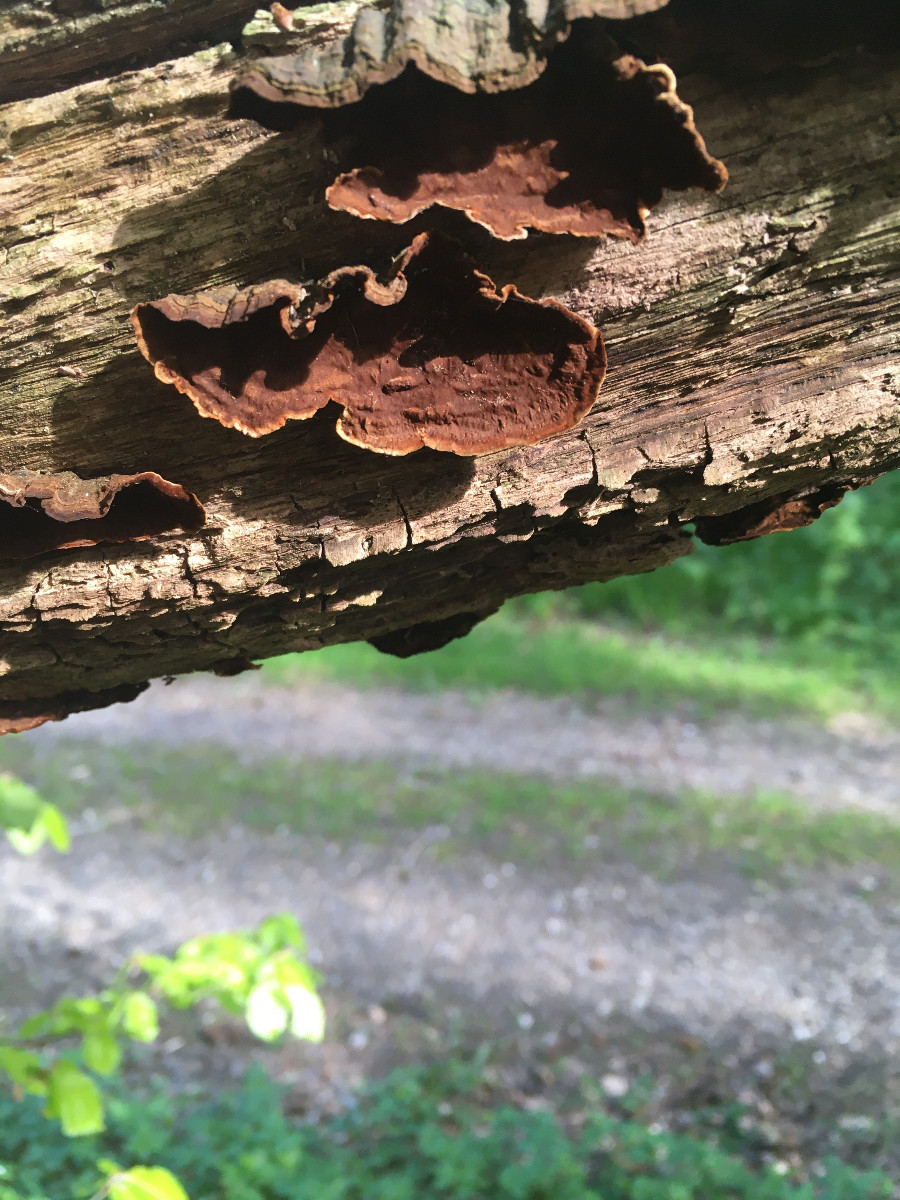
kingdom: Fungi
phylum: Basidiomycota
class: Agaricomycetes
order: Hymenochaetales
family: Hymenochaetaceae
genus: Hymenochaete
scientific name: Hymenochaete rubiginosa
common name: stiv ruslædersvamp
